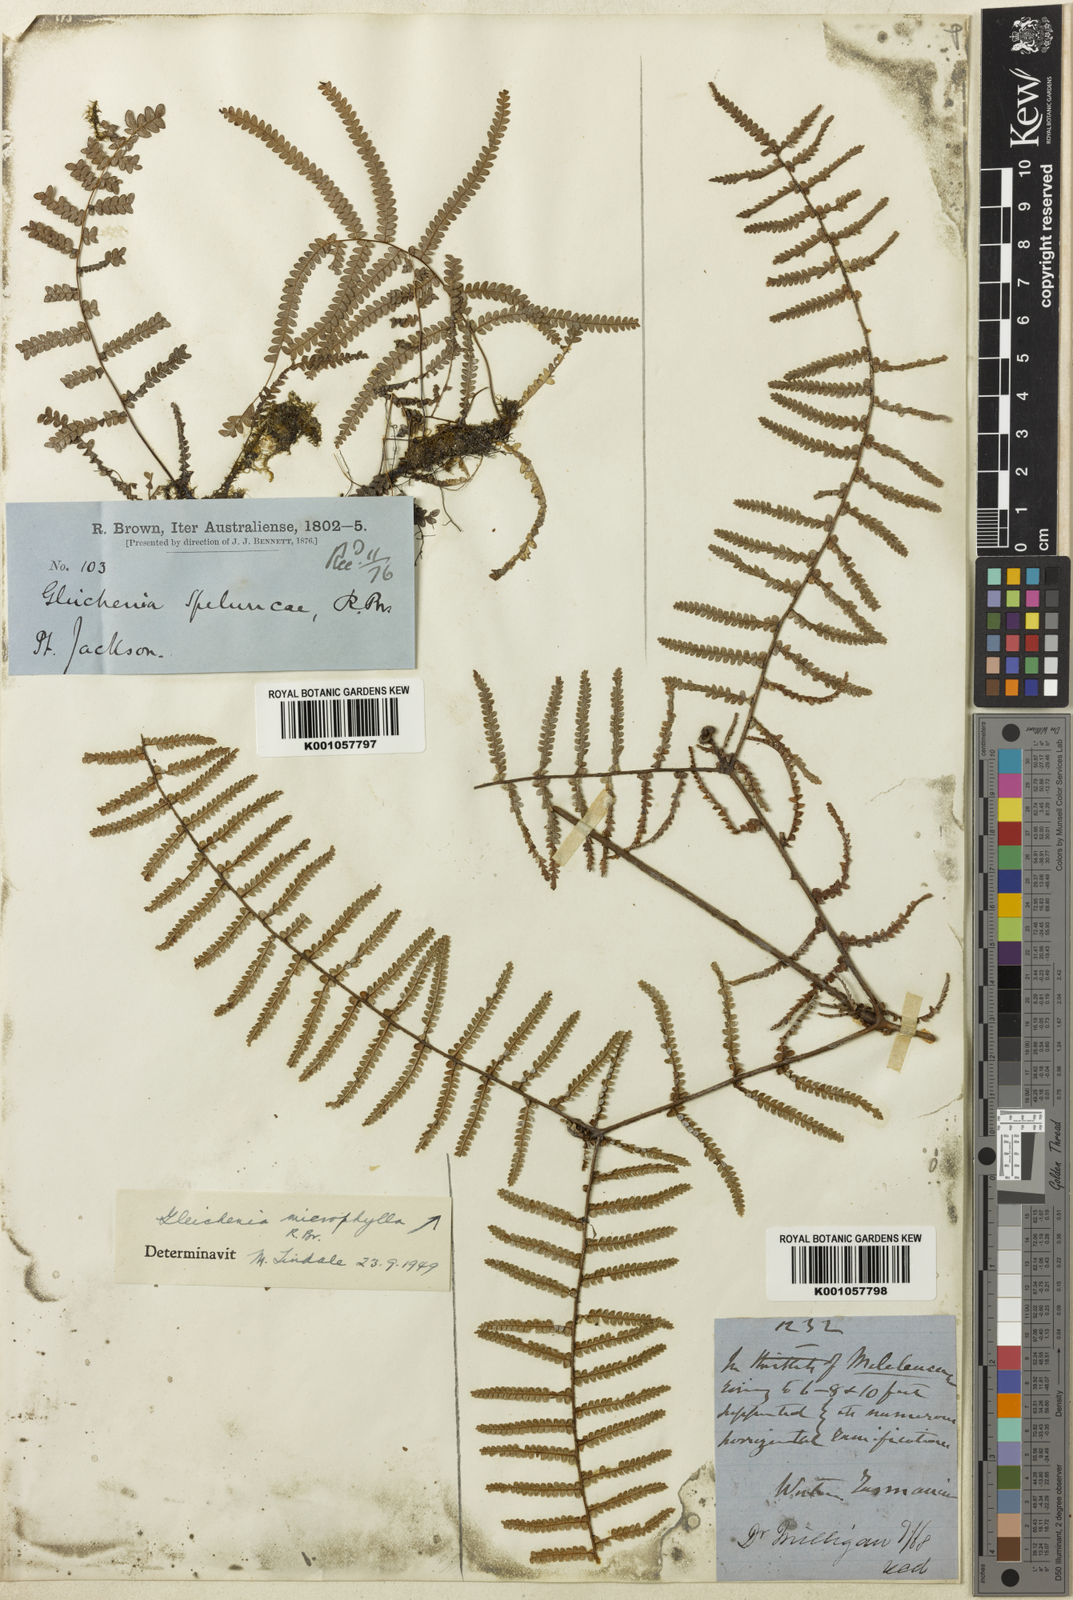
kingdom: Plantae
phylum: Tracheophyta
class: Polypodiopsida
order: Gleicheniales
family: Gleicheniaceae
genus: Gleichenia
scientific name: Gleichenia rupestris
